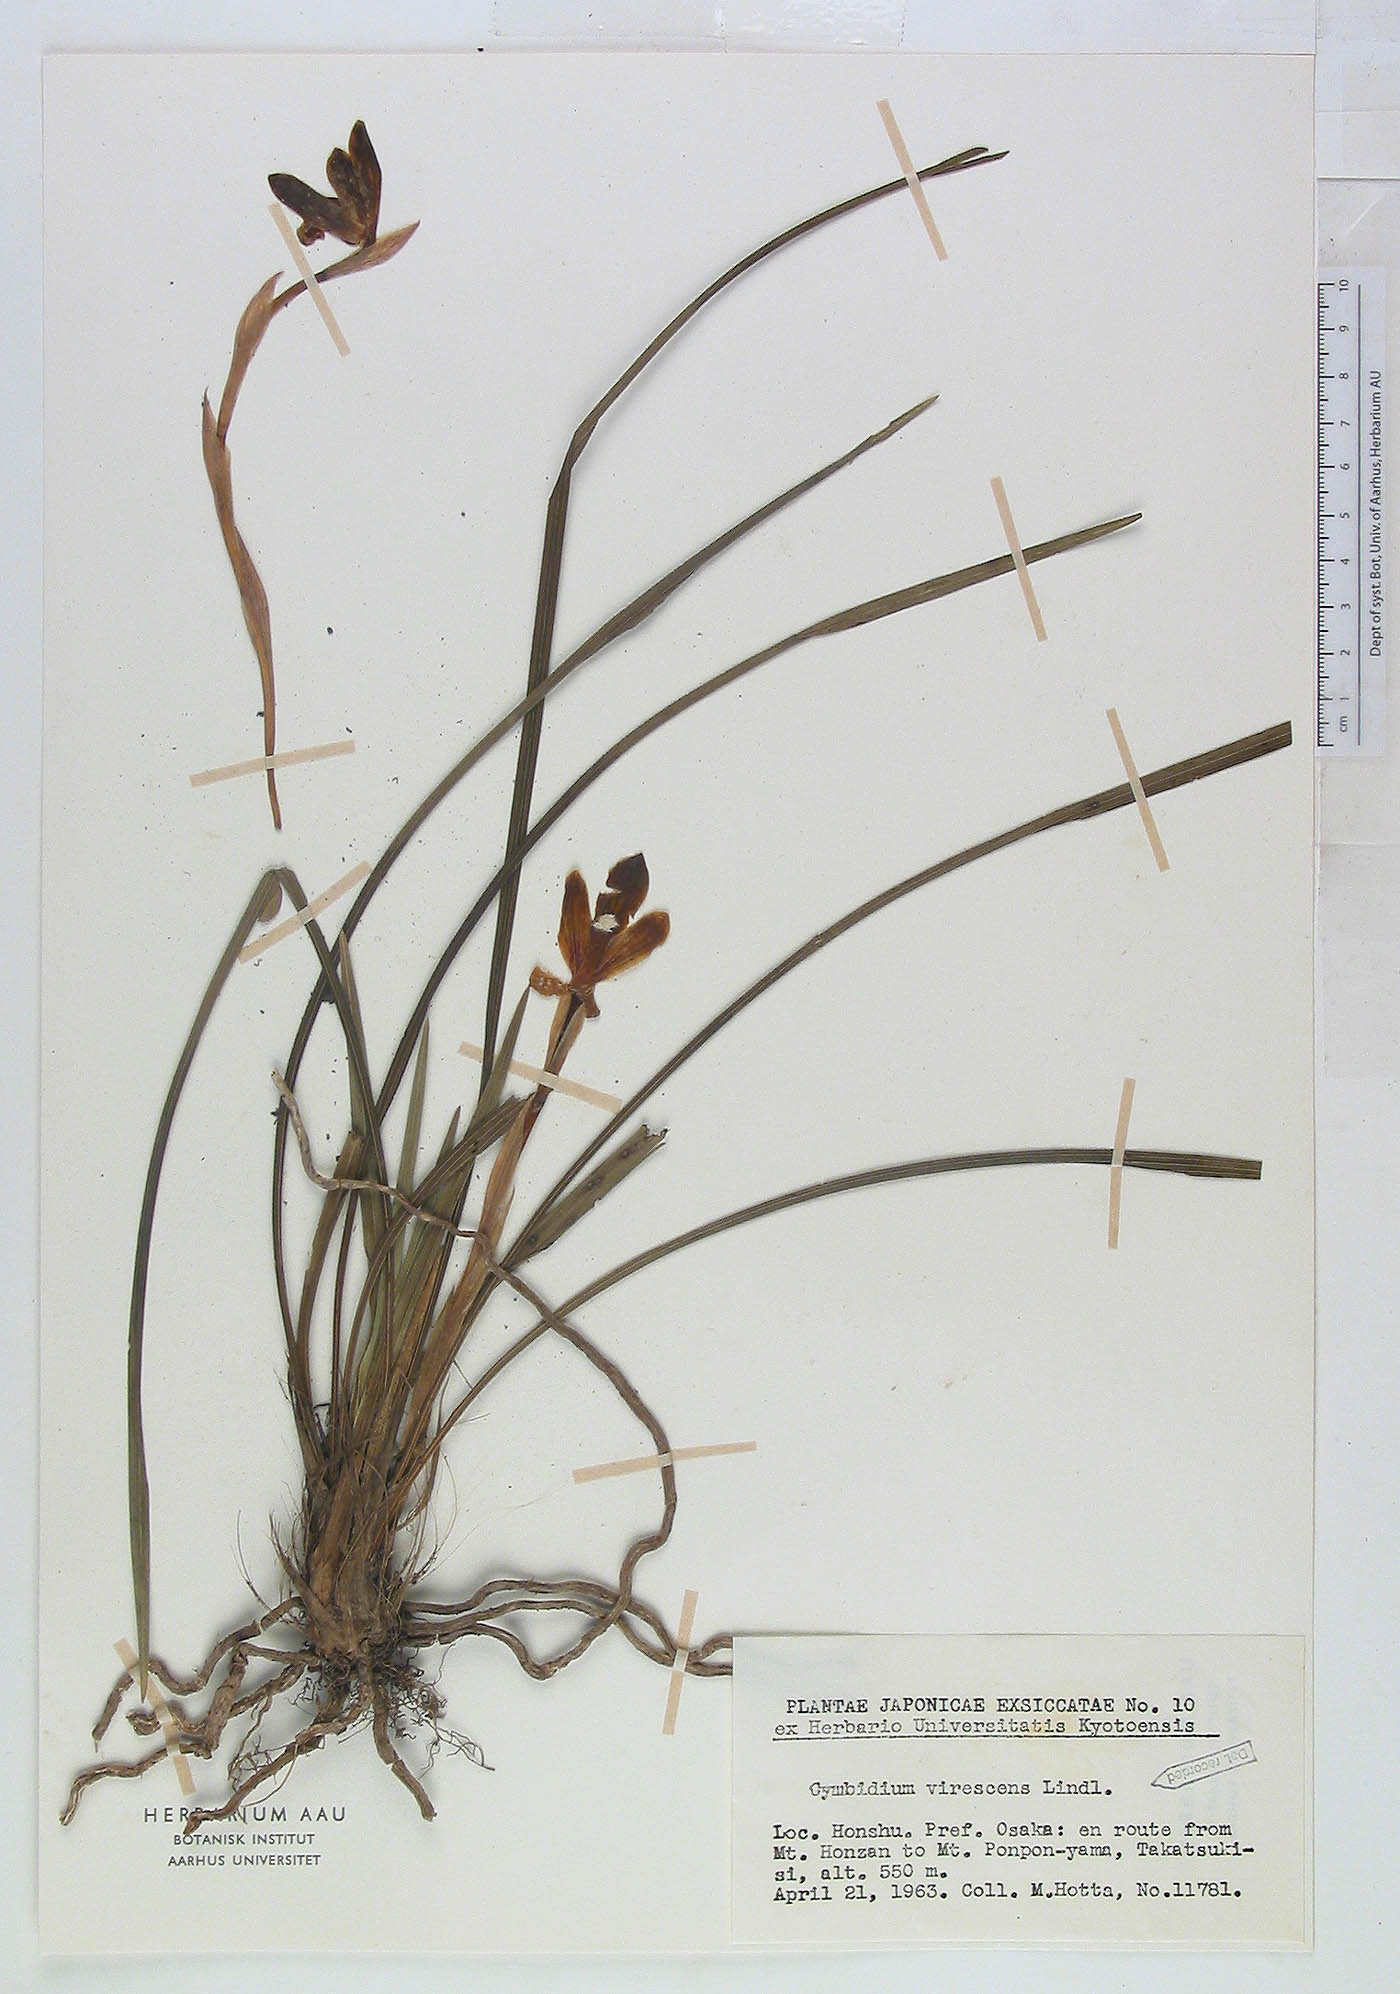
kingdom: Plantae
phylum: Tracheophyta
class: Liliopsida
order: Asparagales
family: Orchidaceae
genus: Cymbidium
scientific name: Cymbidium goeringii
